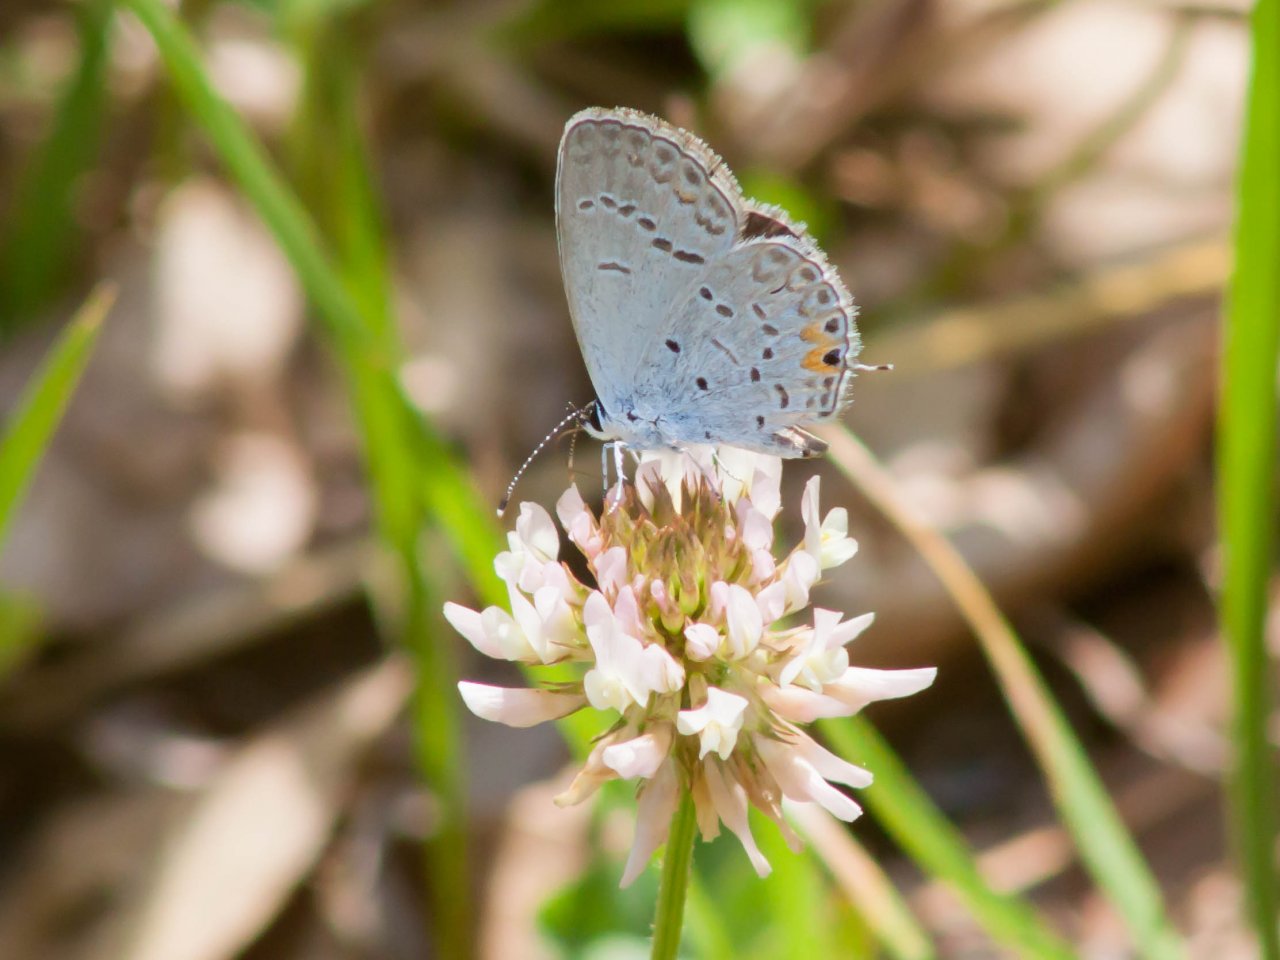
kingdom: Animalia
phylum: Arthropoda
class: Insecta
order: Lepidoptera
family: Lycaenidae
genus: Elkalyce
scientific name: Elkalyce comyntas
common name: Eastern Tailed-Blue
